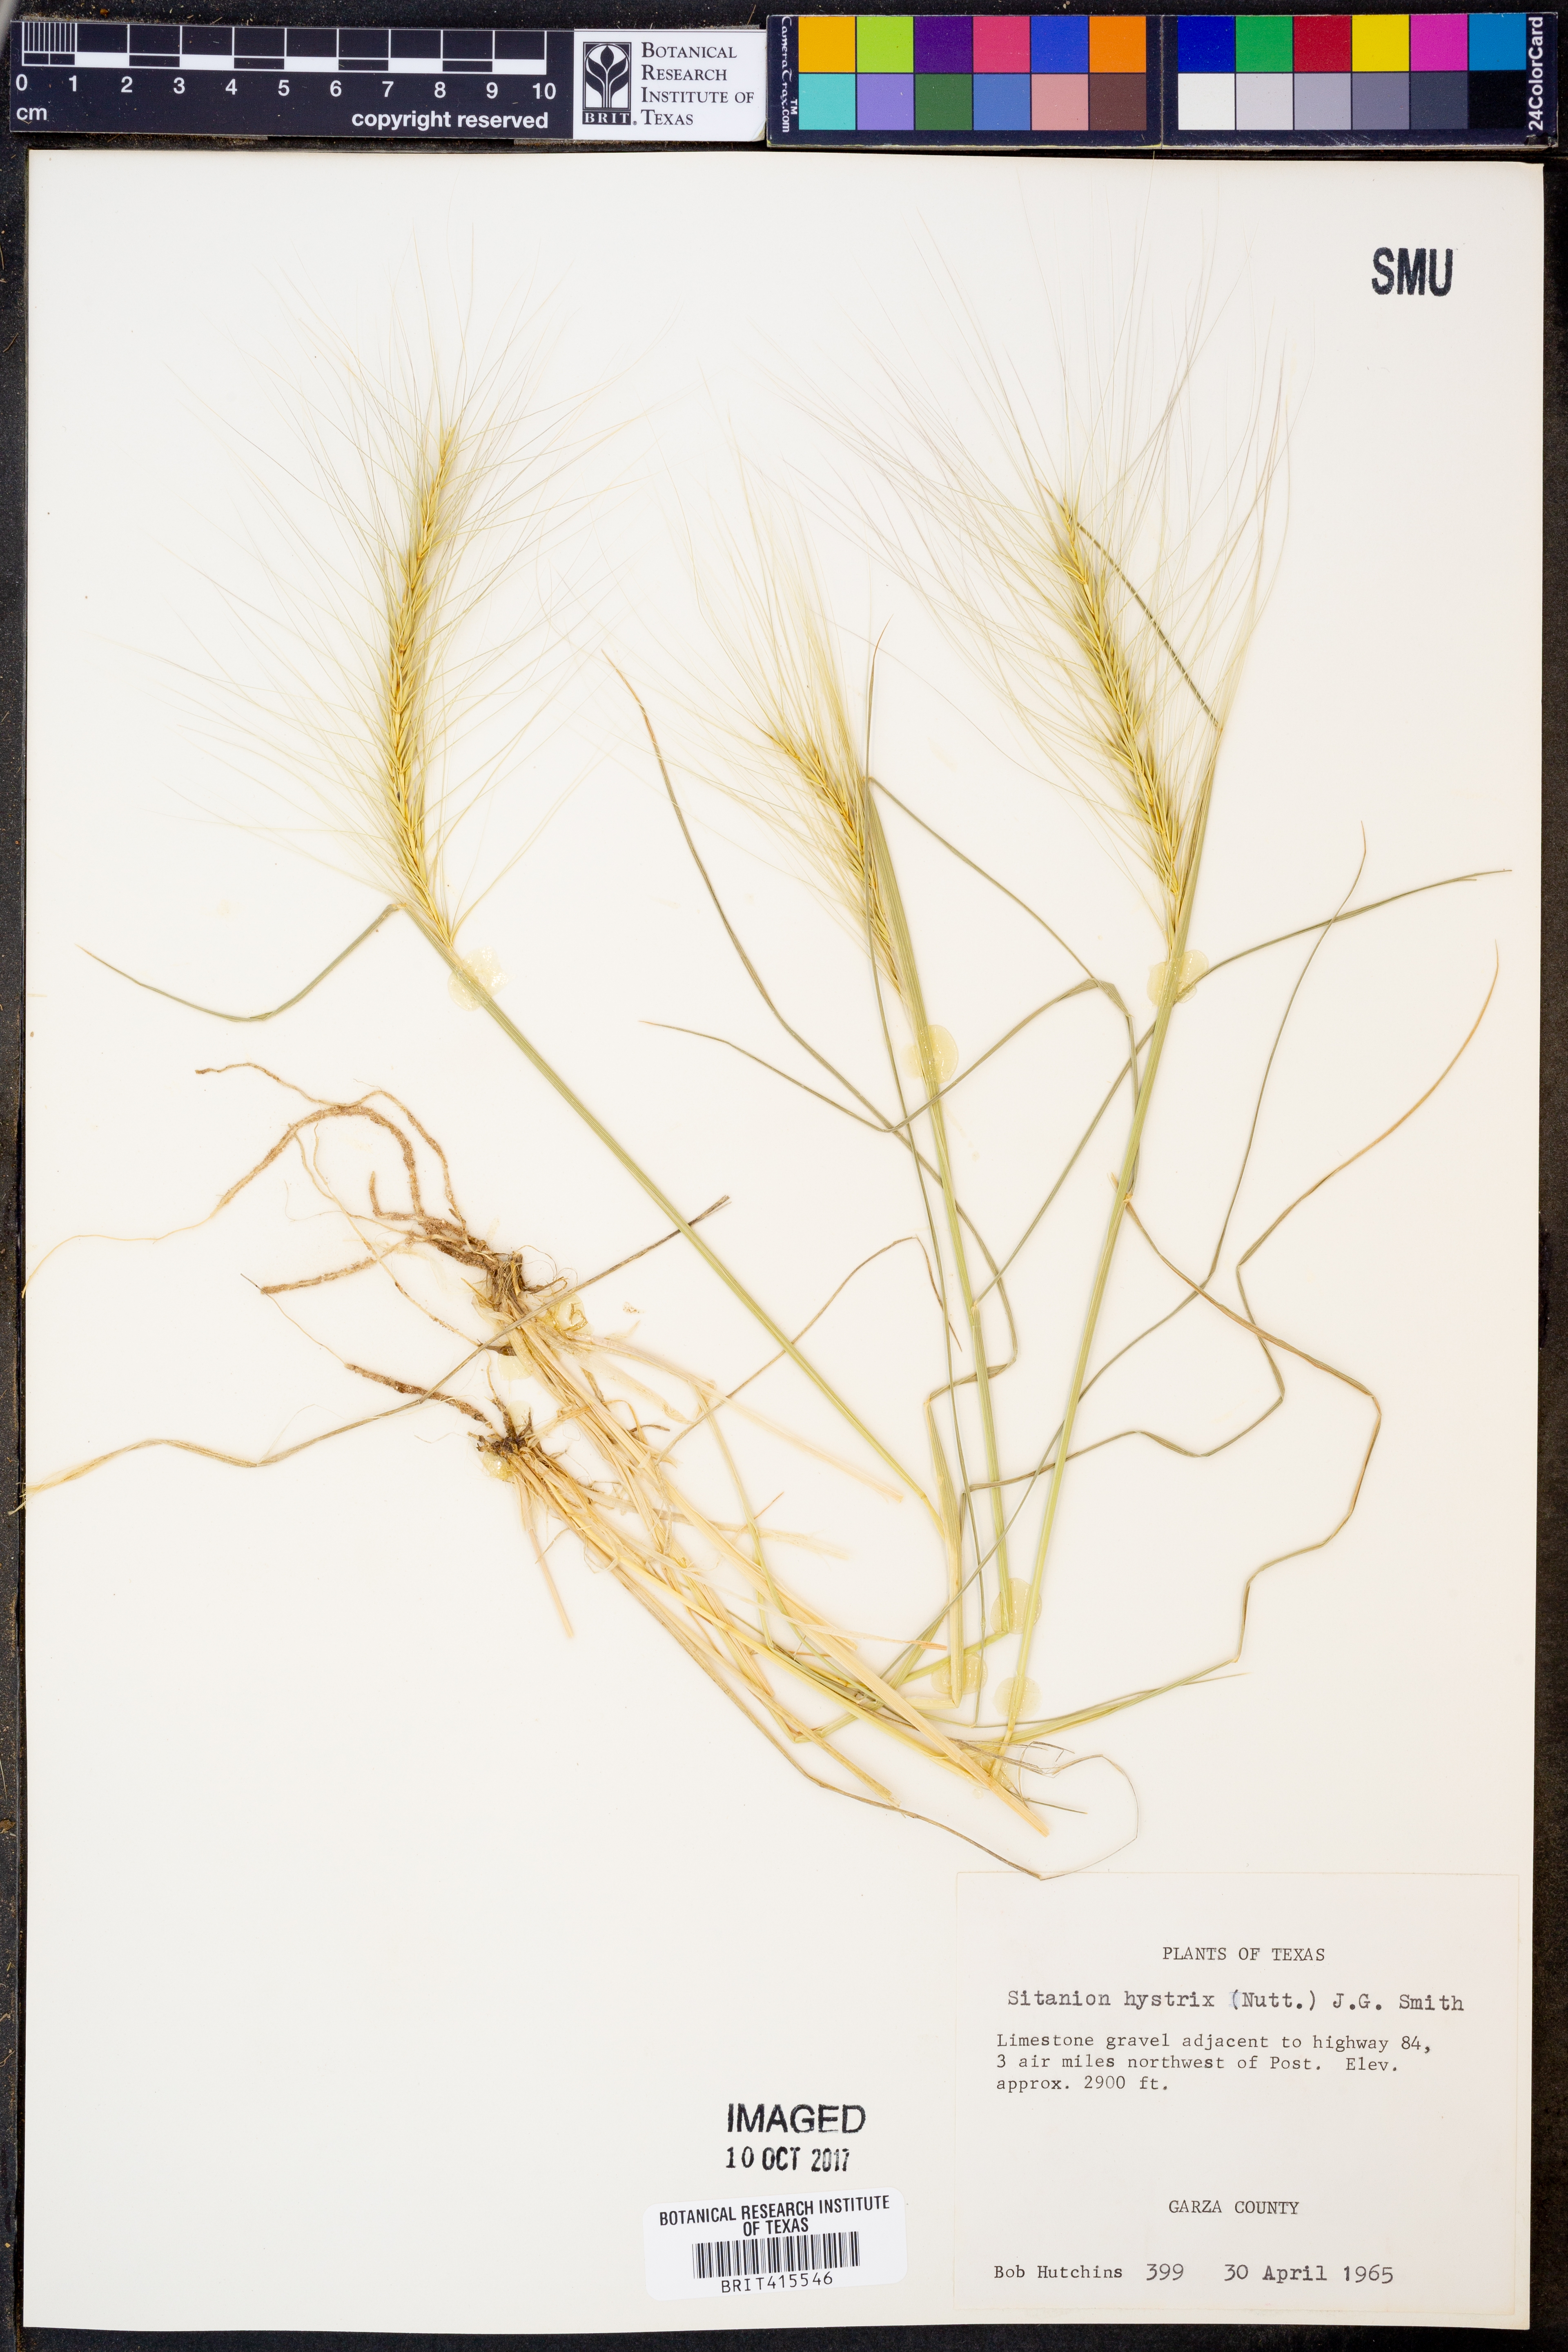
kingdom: Plantae
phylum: Tracheophyta
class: Liliopsida
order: Poales
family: Poaceae
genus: Elymus
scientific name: Elymus elymoides
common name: Bottlebrush squirreltail
